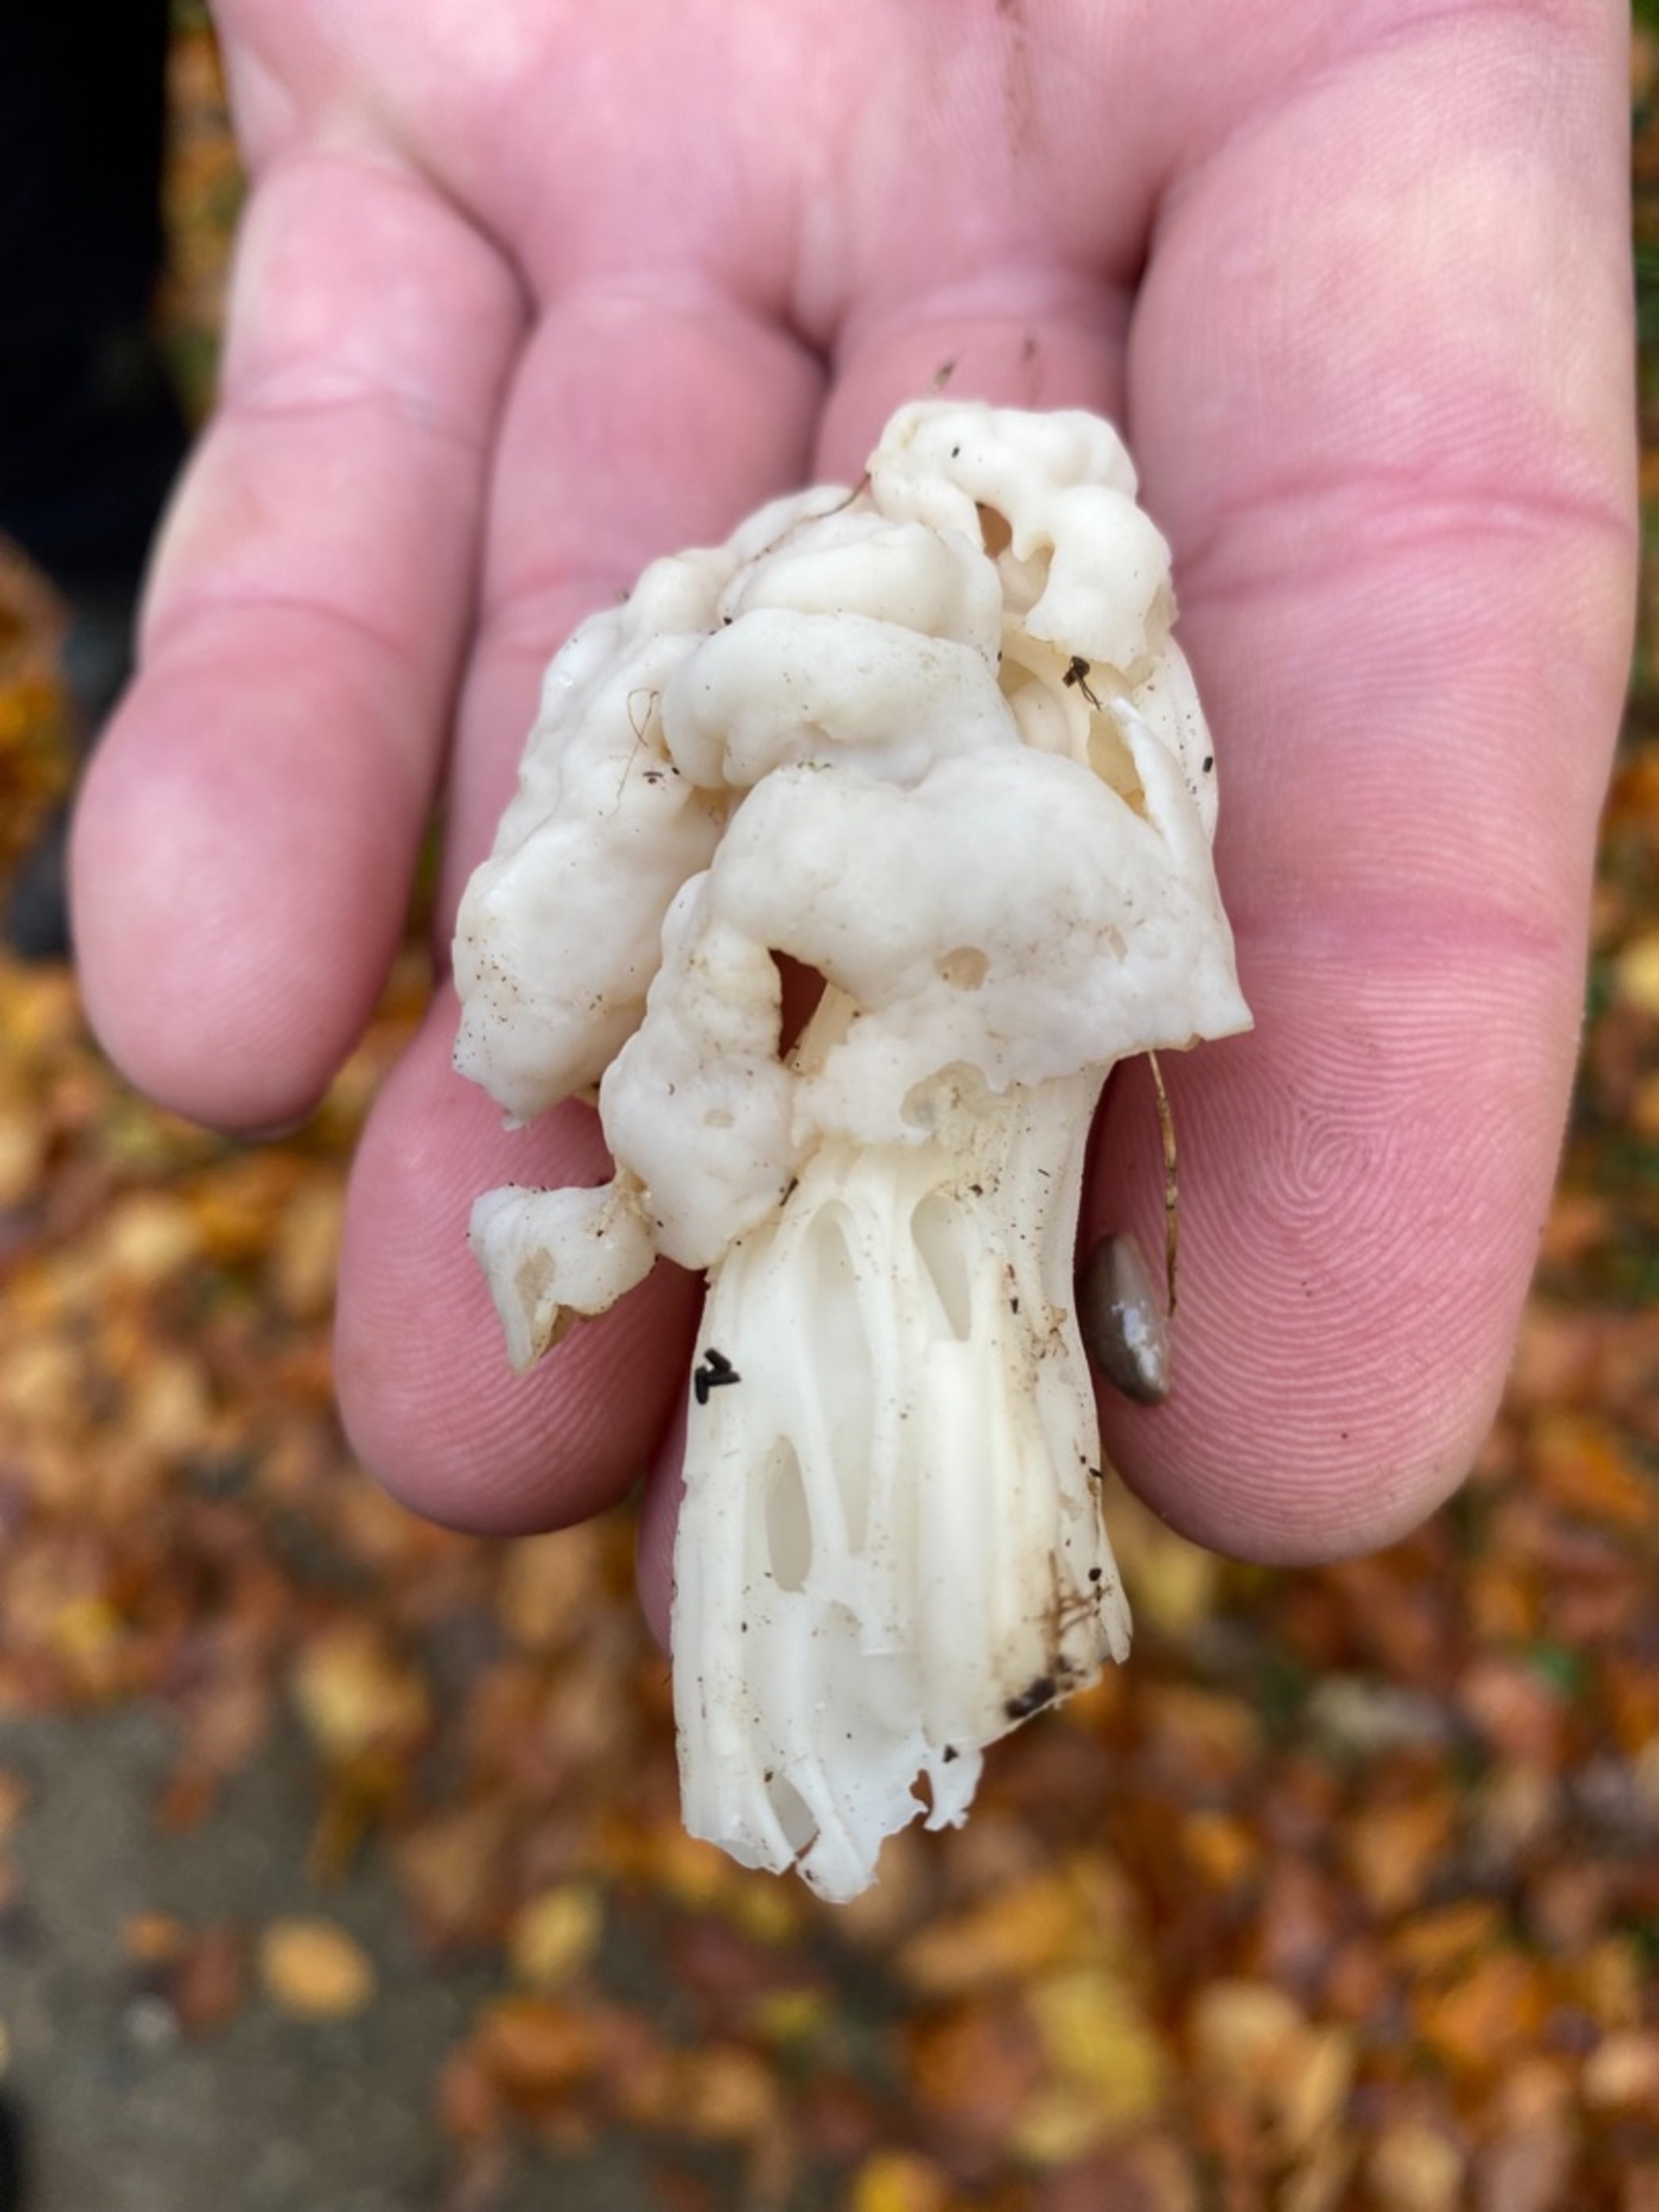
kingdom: Fungi
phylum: Ascomycota
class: Pezizomycetes
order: Pezizales
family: Helvellaceae
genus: Helvella
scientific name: Helvella crispa
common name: Kruset foldhat
